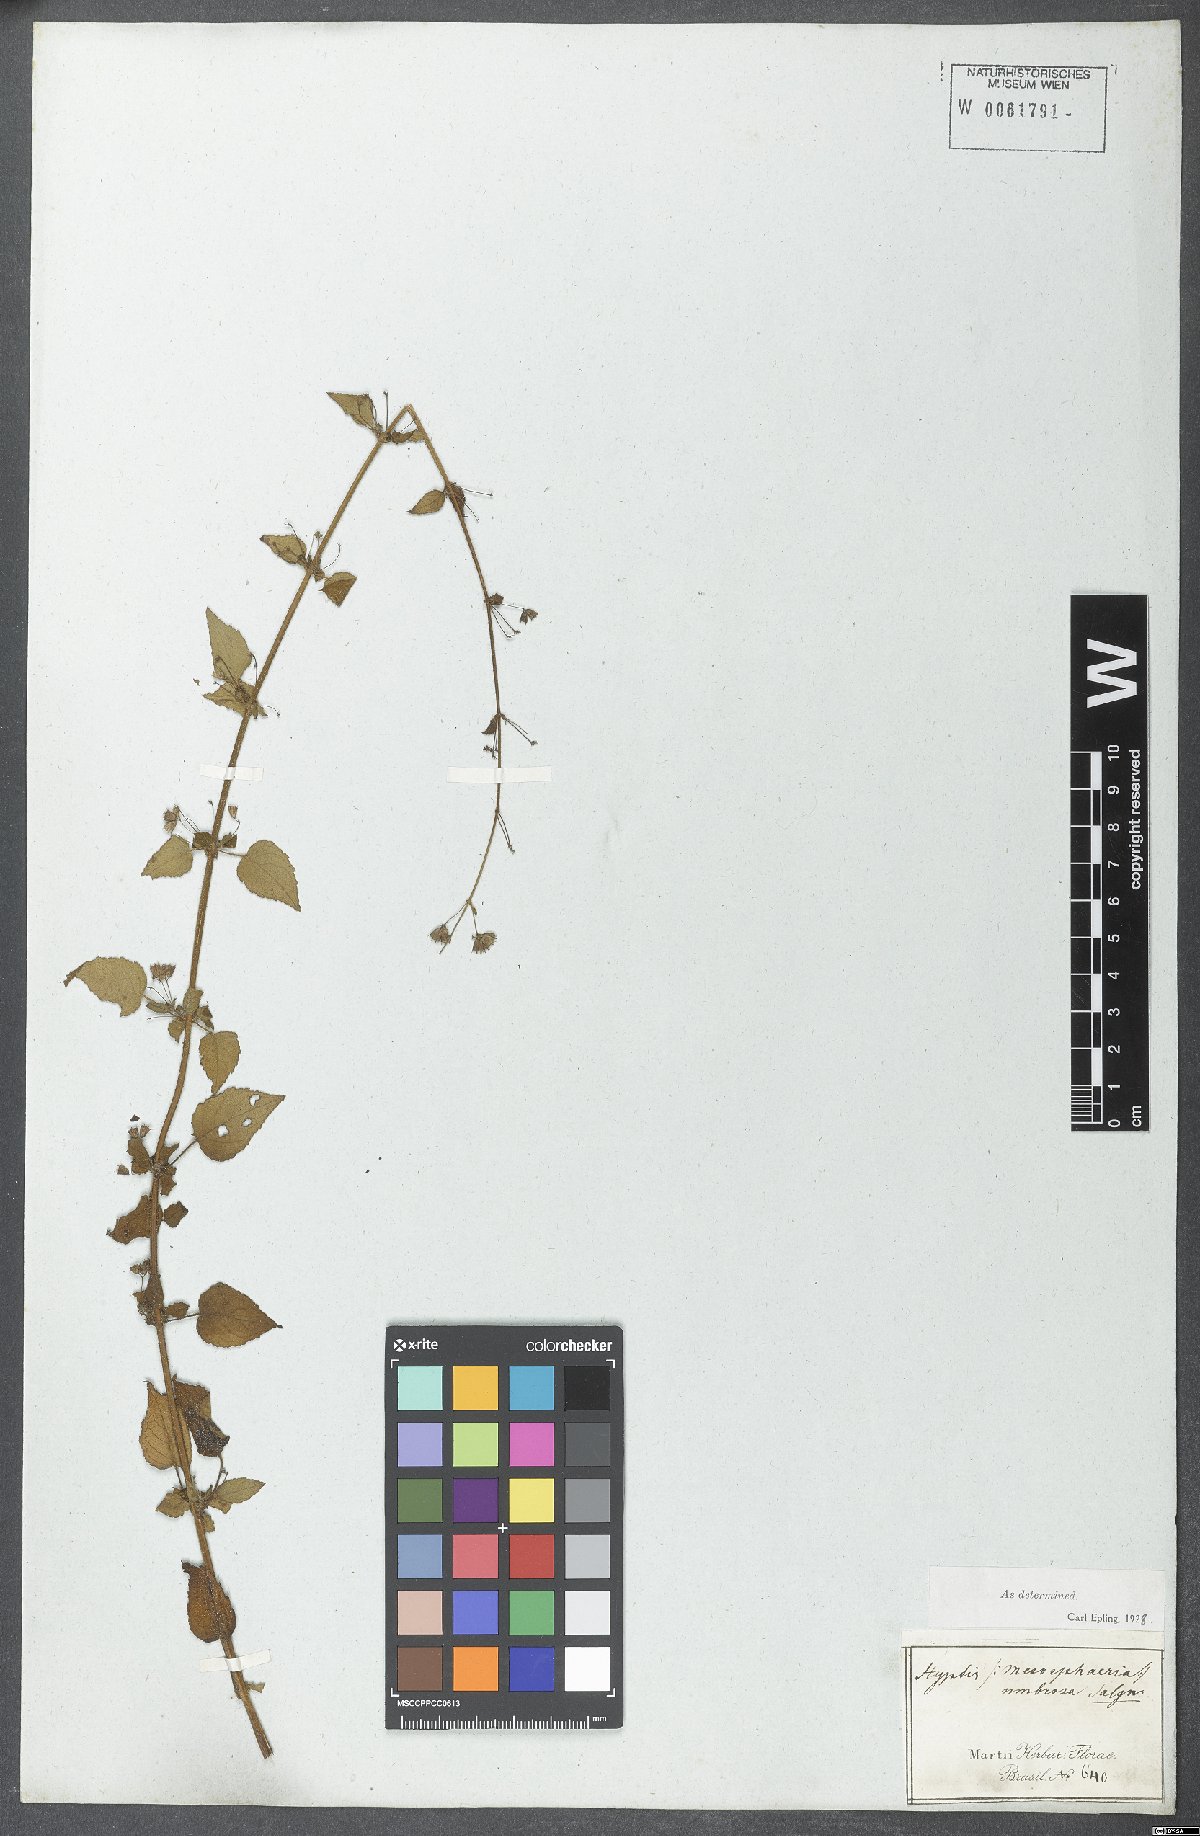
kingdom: Plantae
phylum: Tracheophyta
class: Magnoliopsida
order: Lamiales
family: Lamiaceae
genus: Mesosphaerum
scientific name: Mesosphaerum sidifolium
